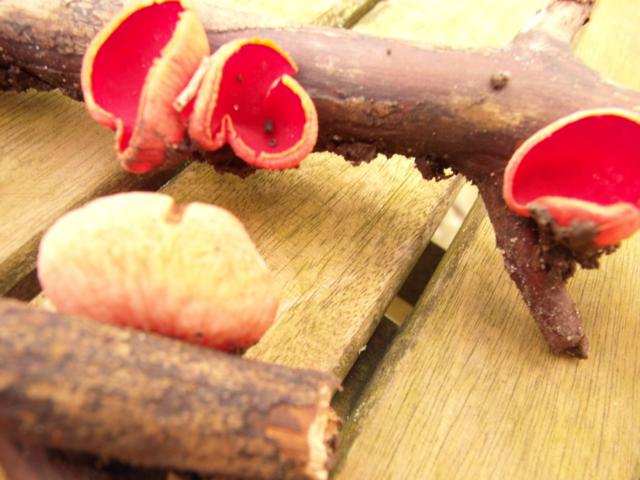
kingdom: Fungi
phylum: Ascomycota
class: Pezizomycetes
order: Pezizales
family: Sarcoscyphaceae
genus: Sarcoscypha
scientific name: Sarcoscypha coccinea
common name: skarlagen-pragtbæger
